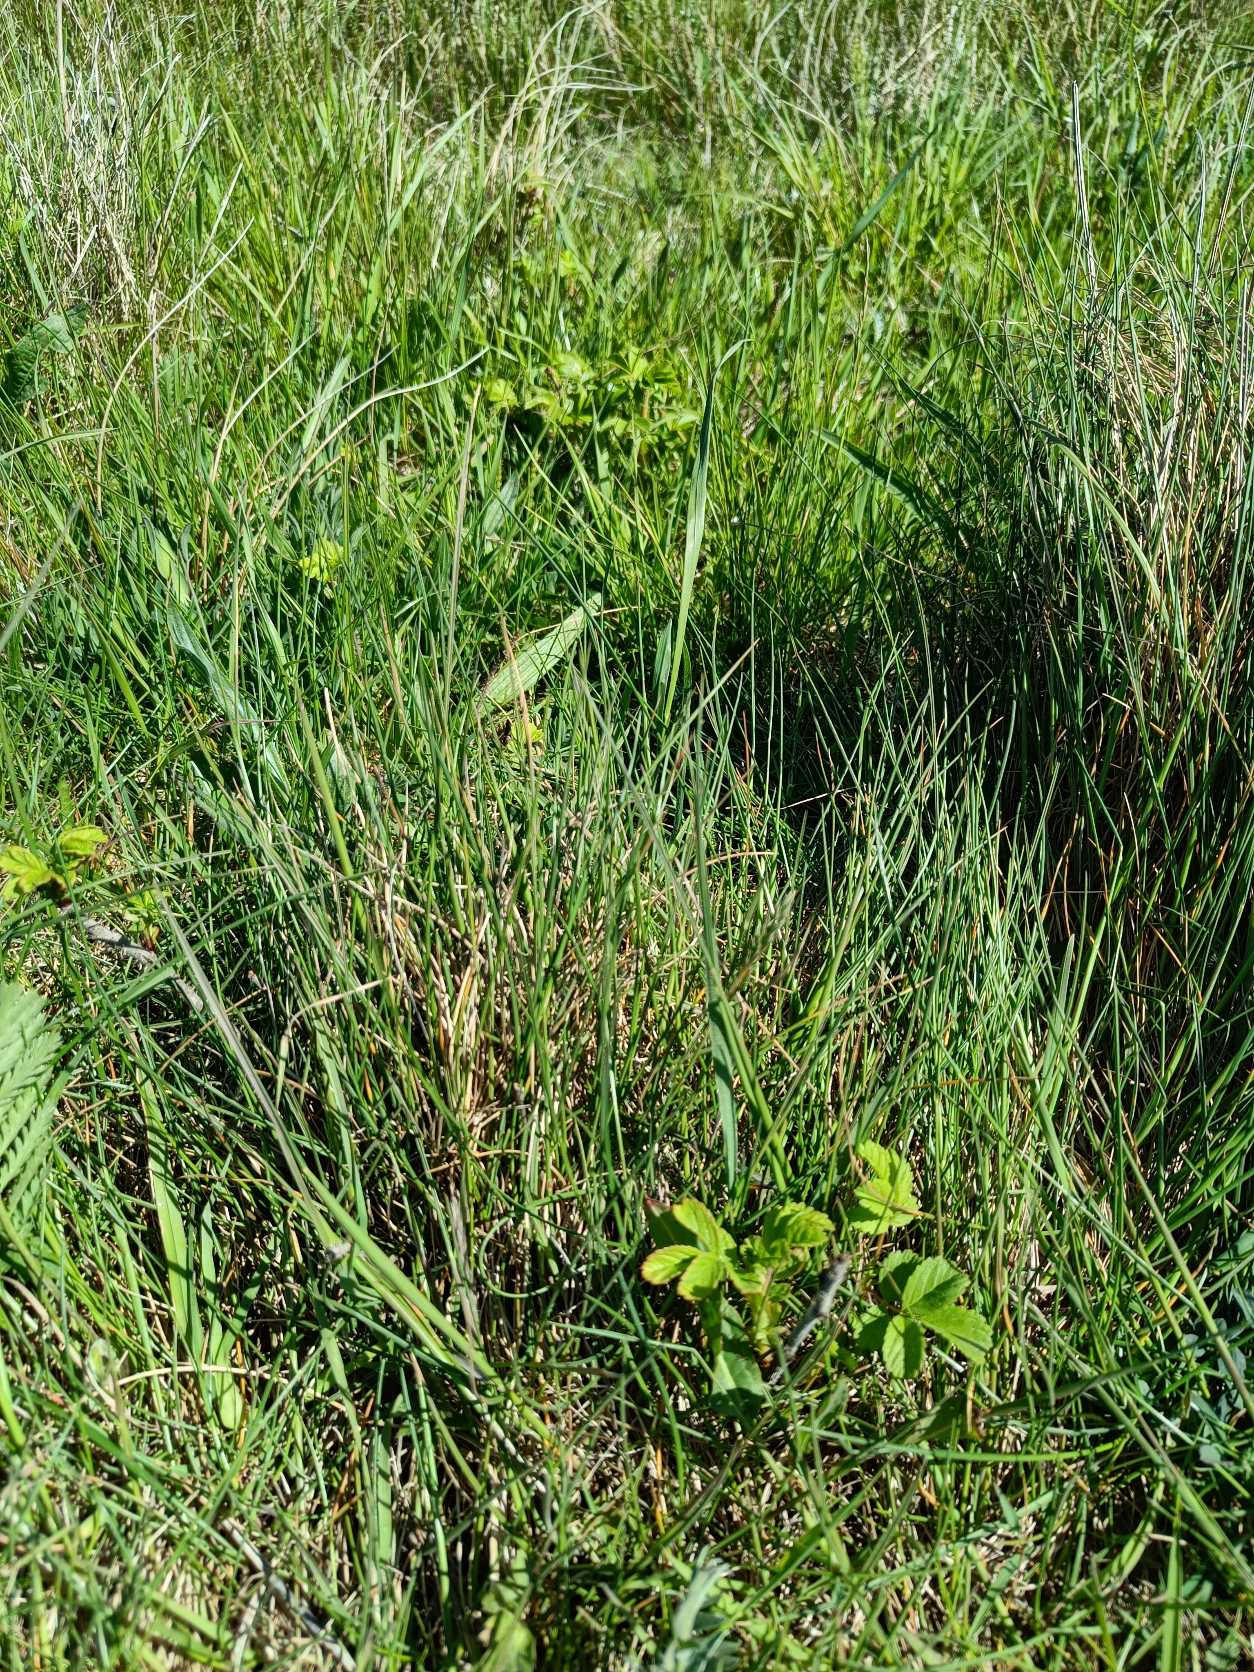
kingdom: Plantae
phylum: Tracheophyta
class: Magnoliopsida
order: Rosales
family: Rosaceae
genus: Rosa
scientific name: Rosa rugosa
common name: Rynket rose
